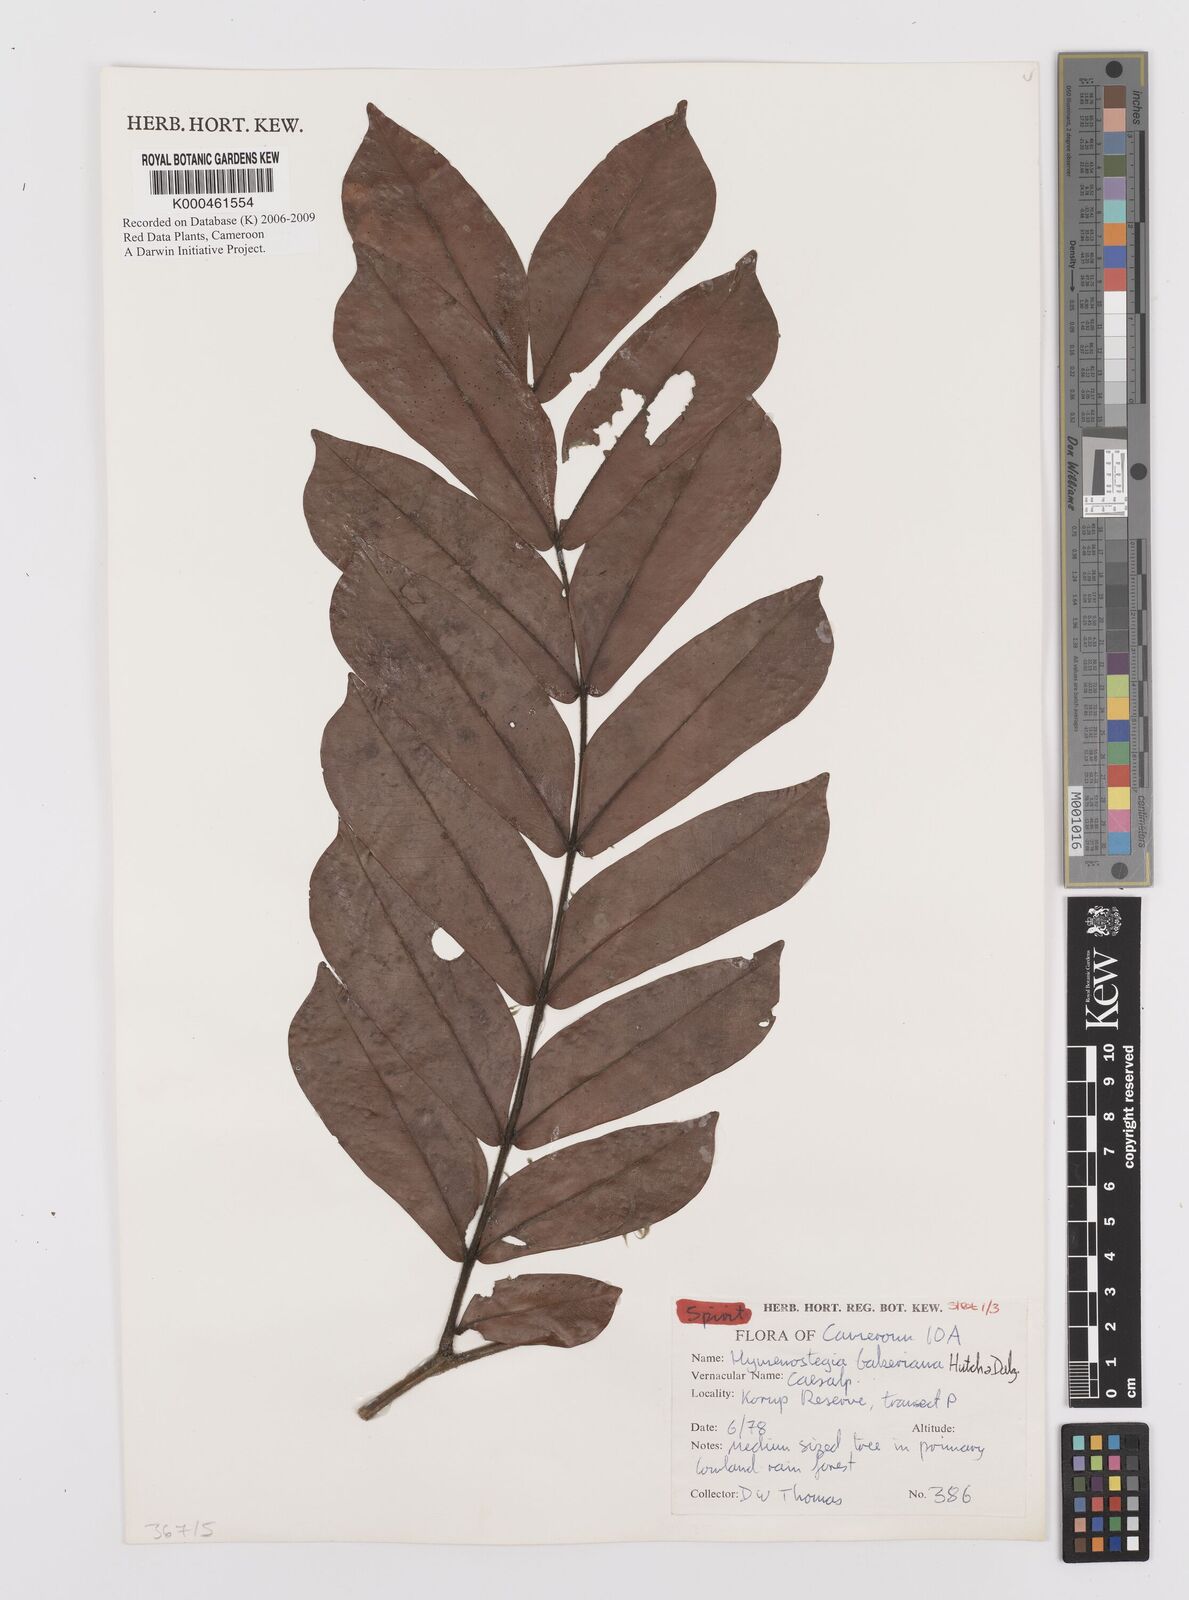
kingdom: Plantae
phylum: Tracheophyta
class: Magnoliopsida
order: Fabales
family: Fabaceae
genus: Hymenostegia
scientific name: Hymenostegia bakeriana
